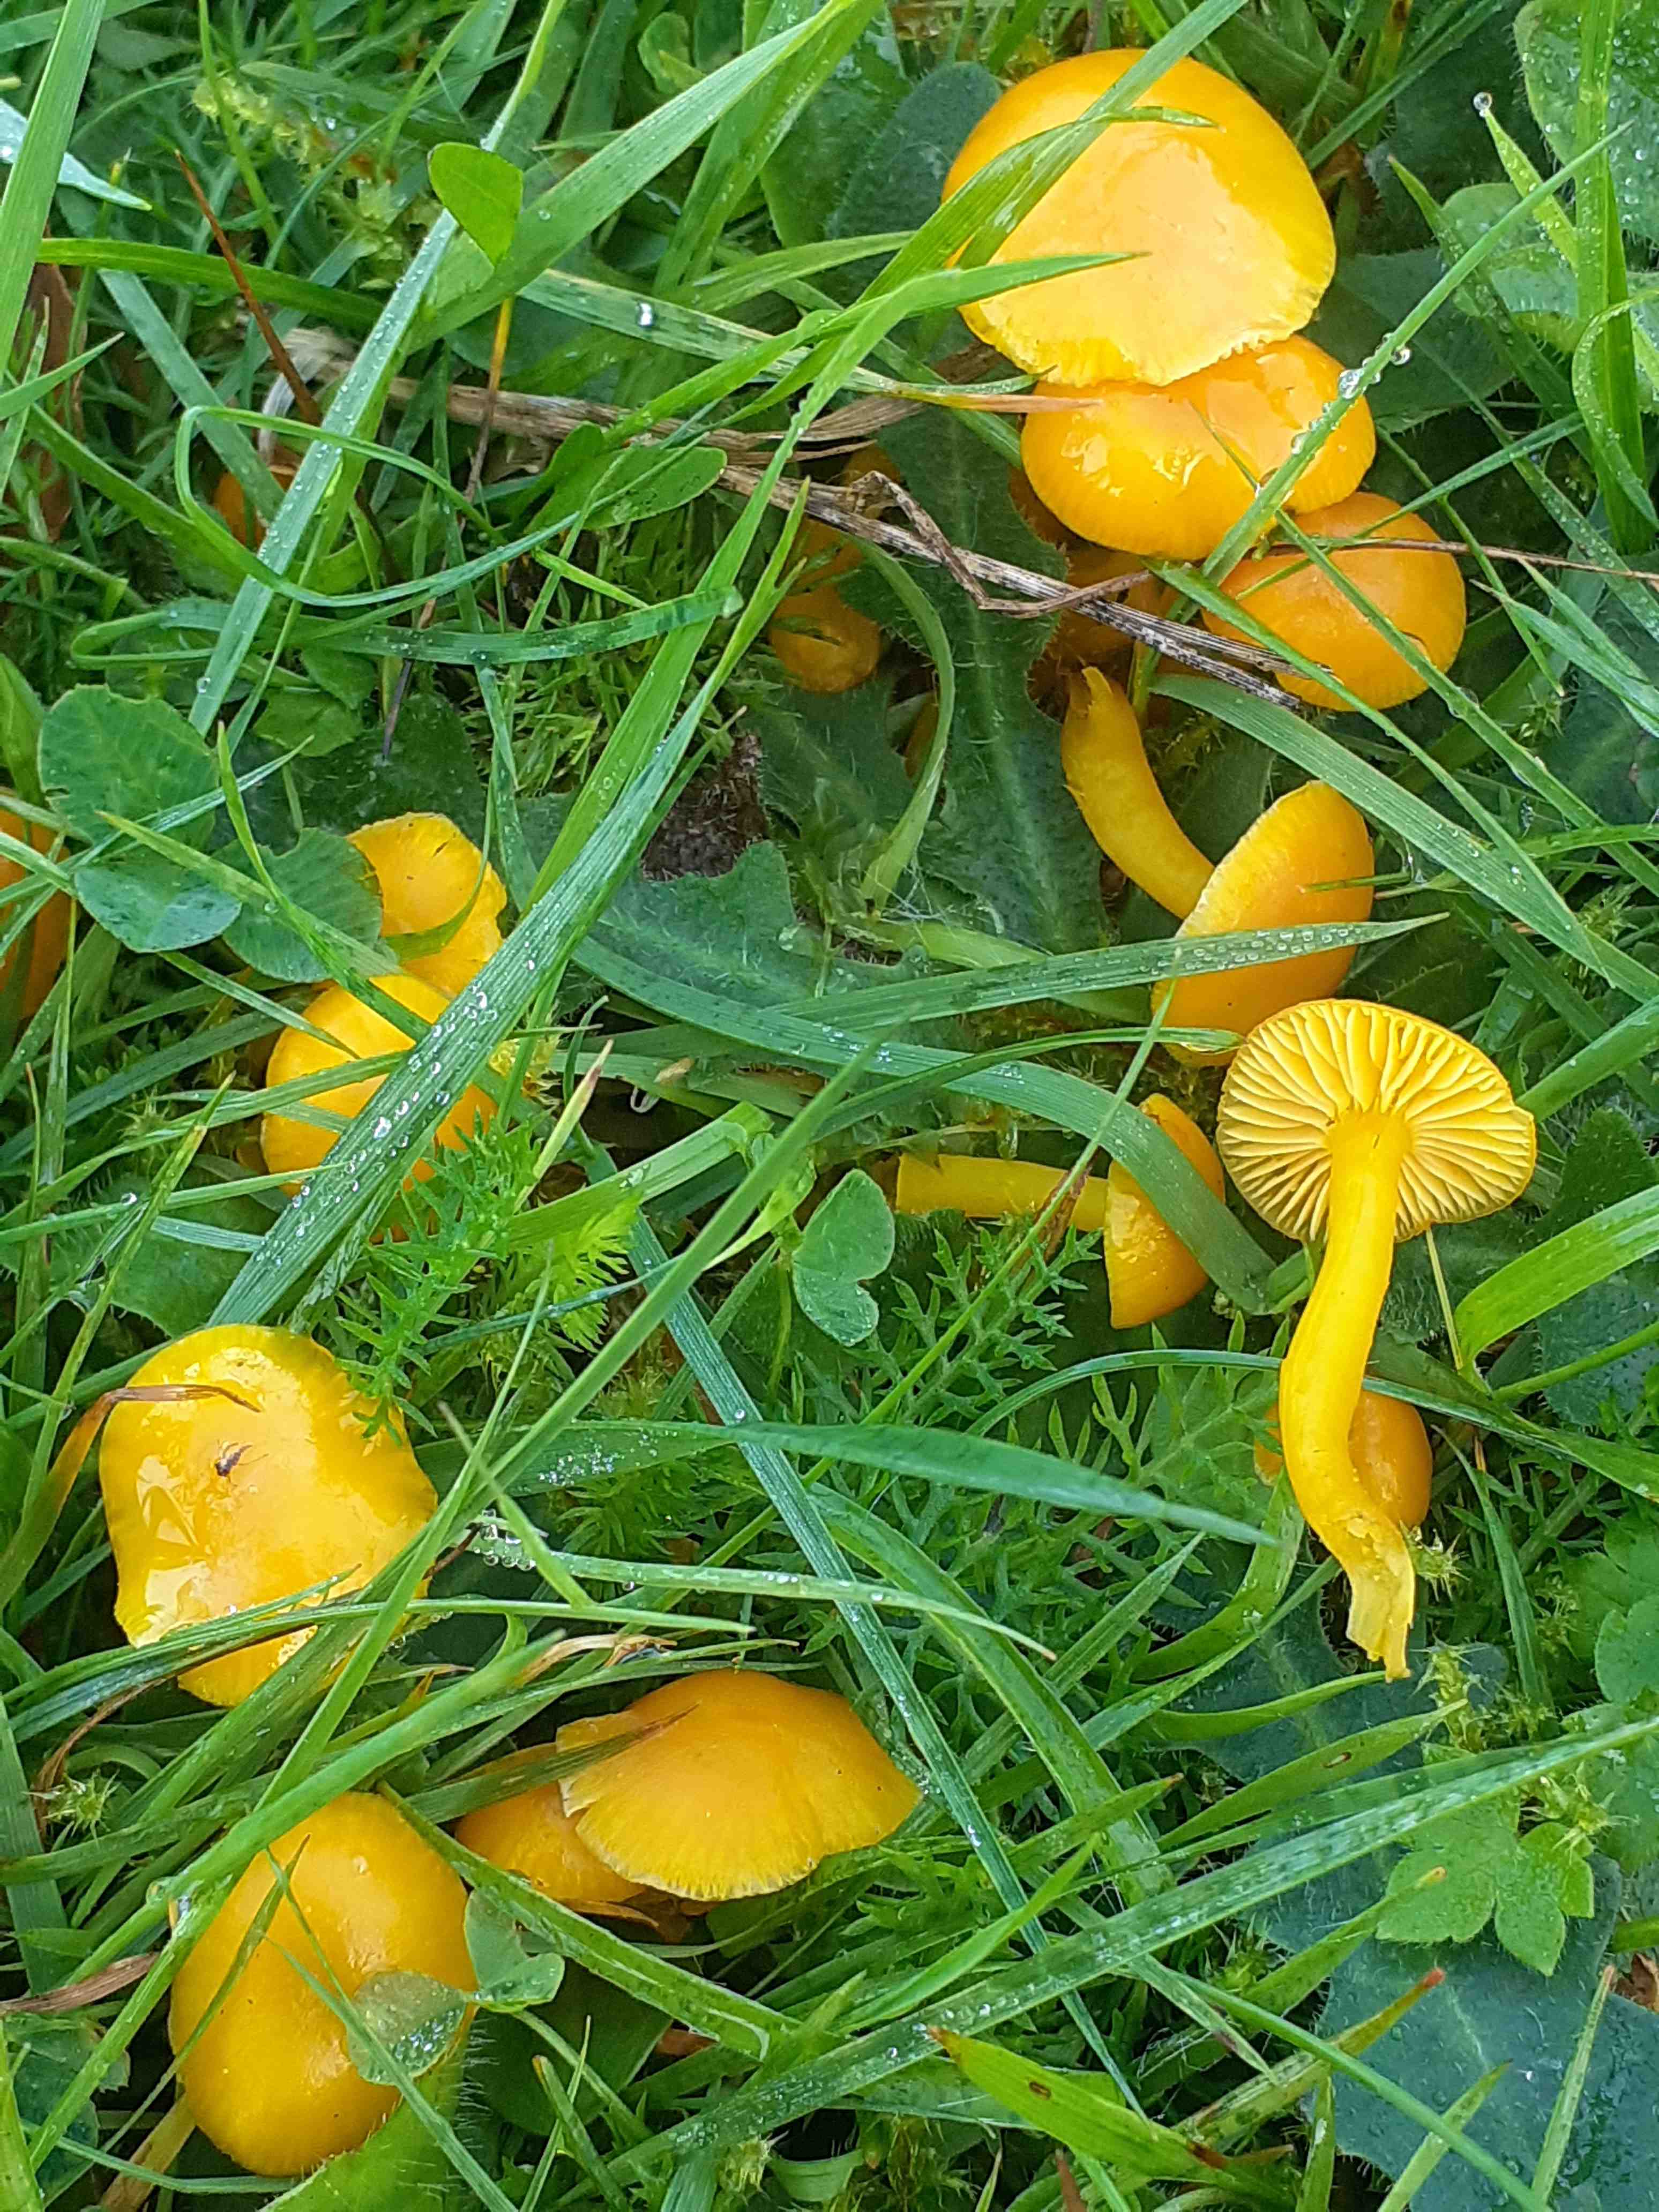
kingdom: Fungi
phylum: Basidiomycota
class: Agaricomycetes
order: Agaricales
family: Hygrophoraceae
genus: Hygrocybe
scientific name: Hygrocybe ceracea
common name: voksgul vokshat
